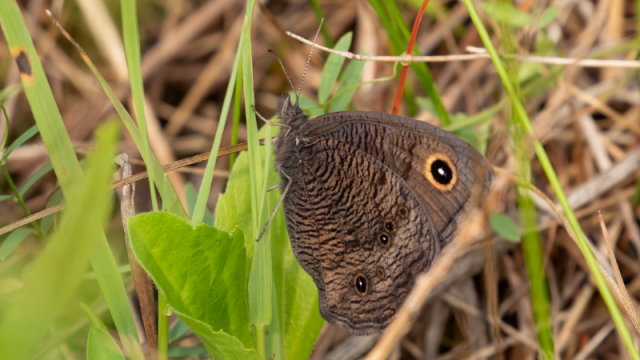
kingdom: Animalia
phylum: Arthropoda
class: Insecta
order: Lepidoptera
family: Nymphalidae
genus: Cercyonis
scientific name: Cercyonis pegala
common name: Common Wood-Nymph
